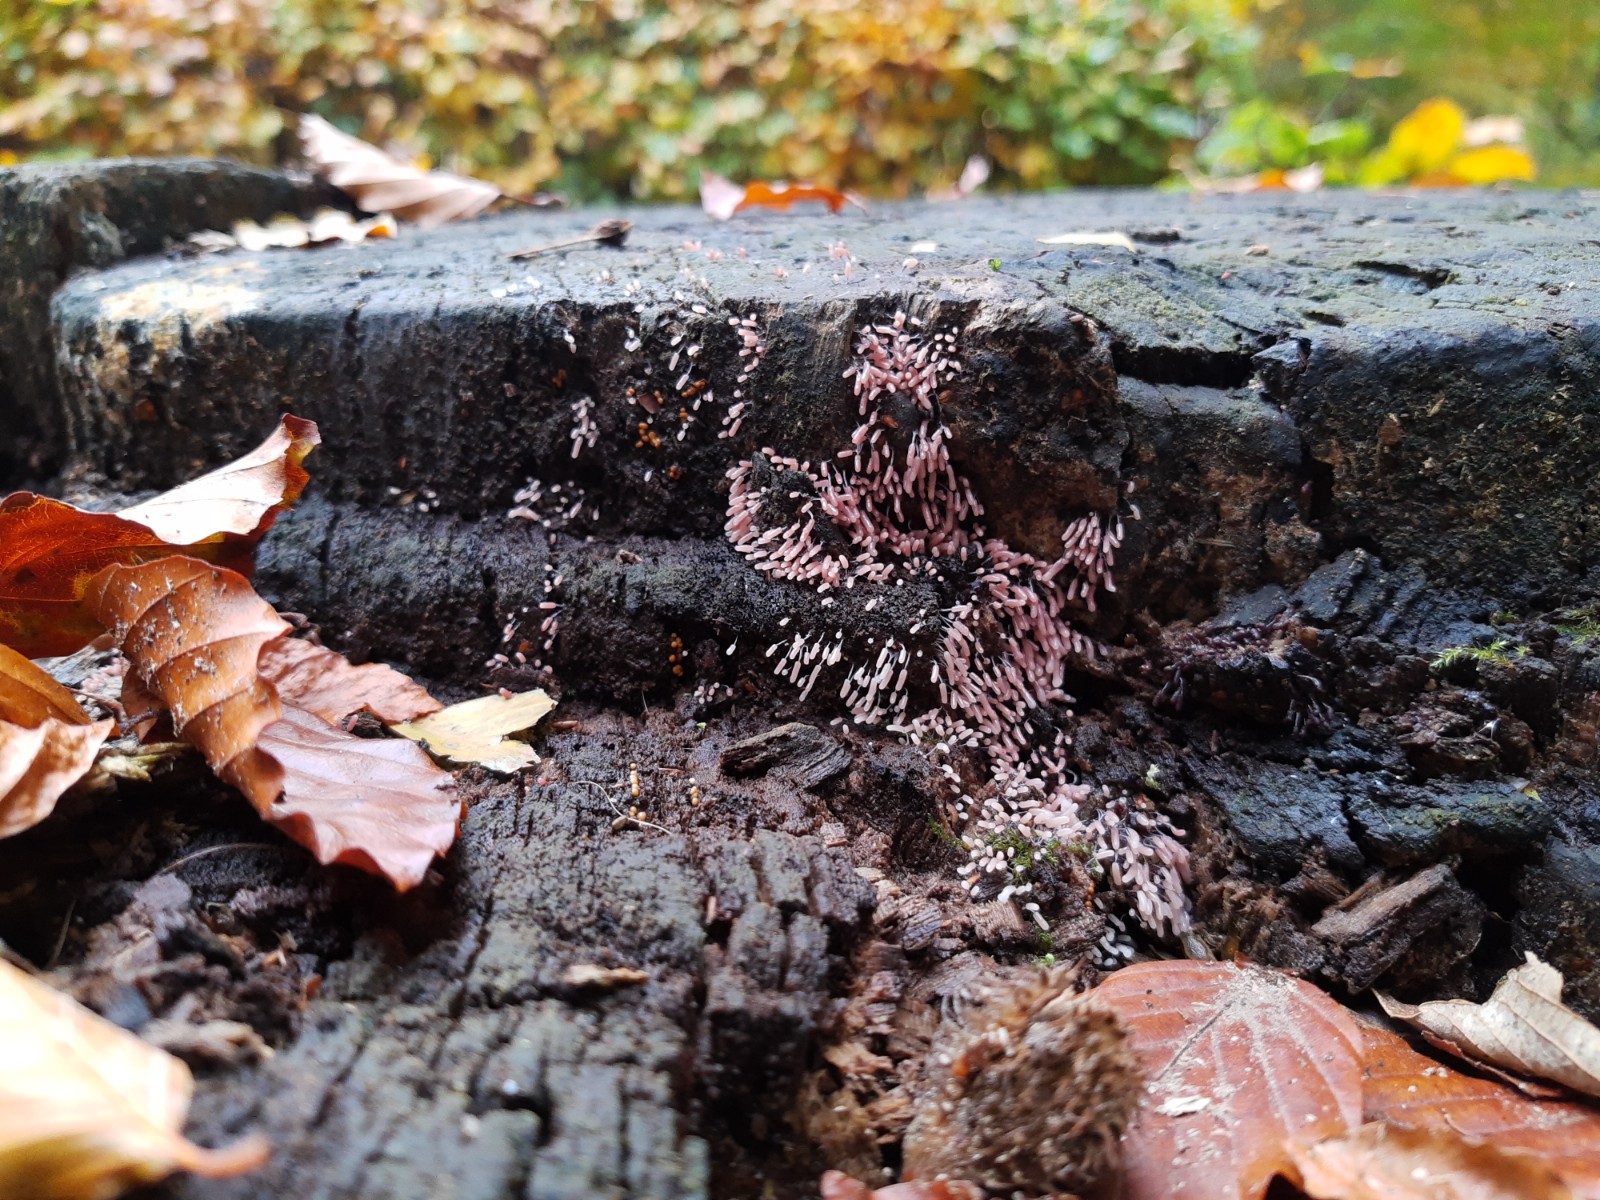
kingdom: Protozoa
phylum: Mycetozoa
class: Myxomycetes
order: Stemonitidales
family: Stemonitidaceae
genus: Stemonitopsis
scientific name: Stemonitopsis
